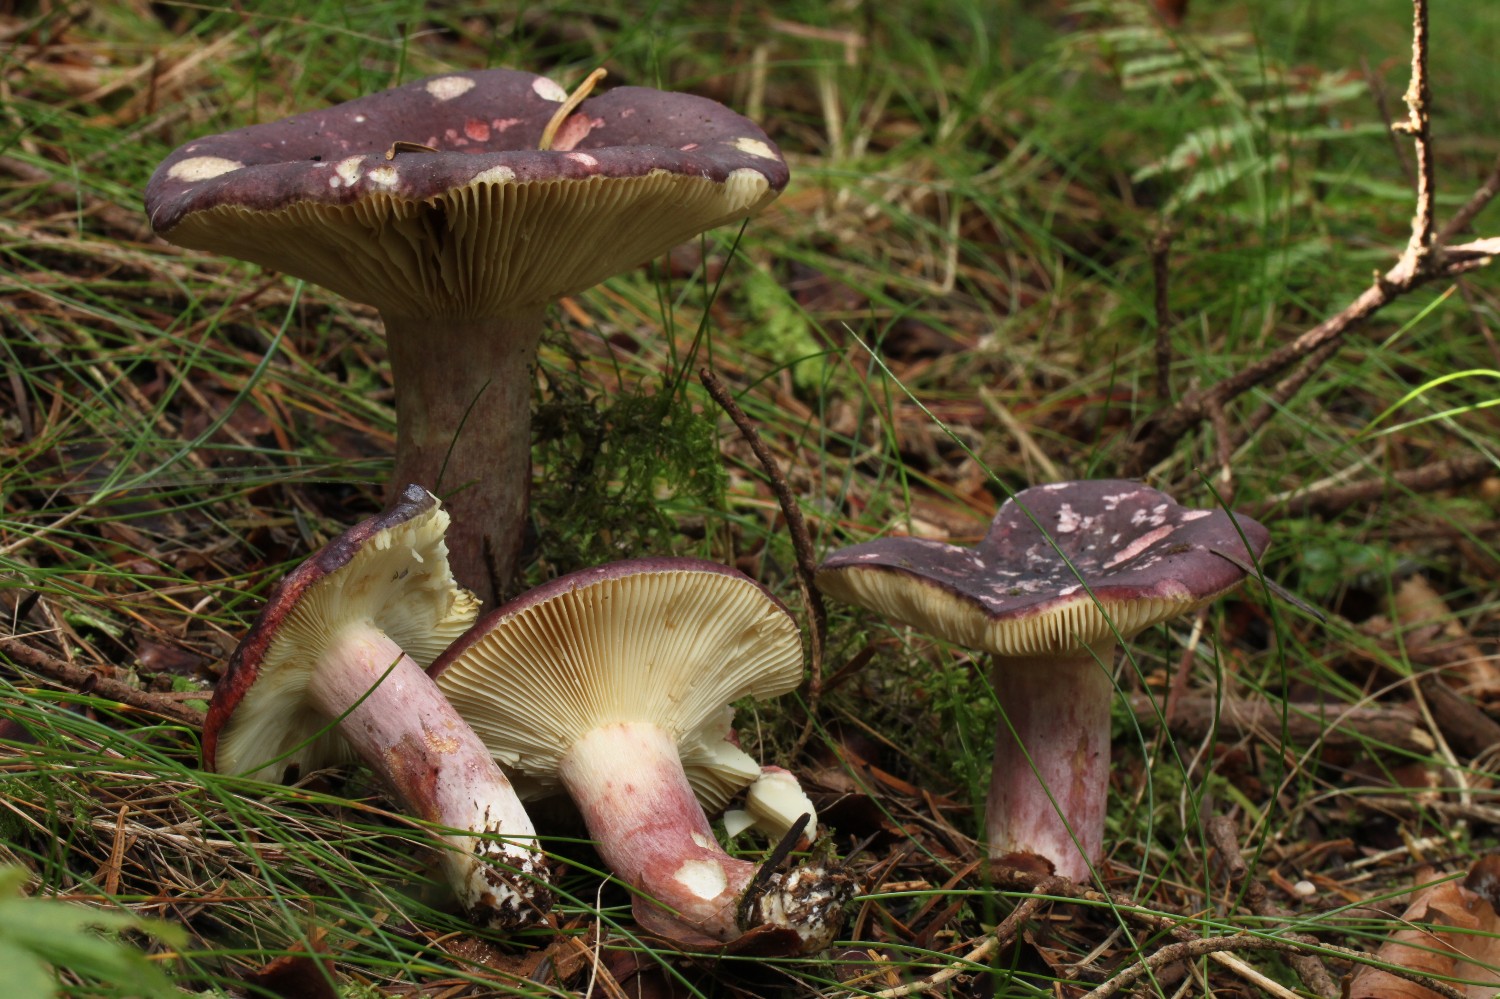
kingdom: Fungi
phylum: Basidiomycota
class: Agaricomycetes
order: Russulales
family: Russulaceae
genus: Russula
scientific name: Russula sardonia
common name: citronbladet skørhat
